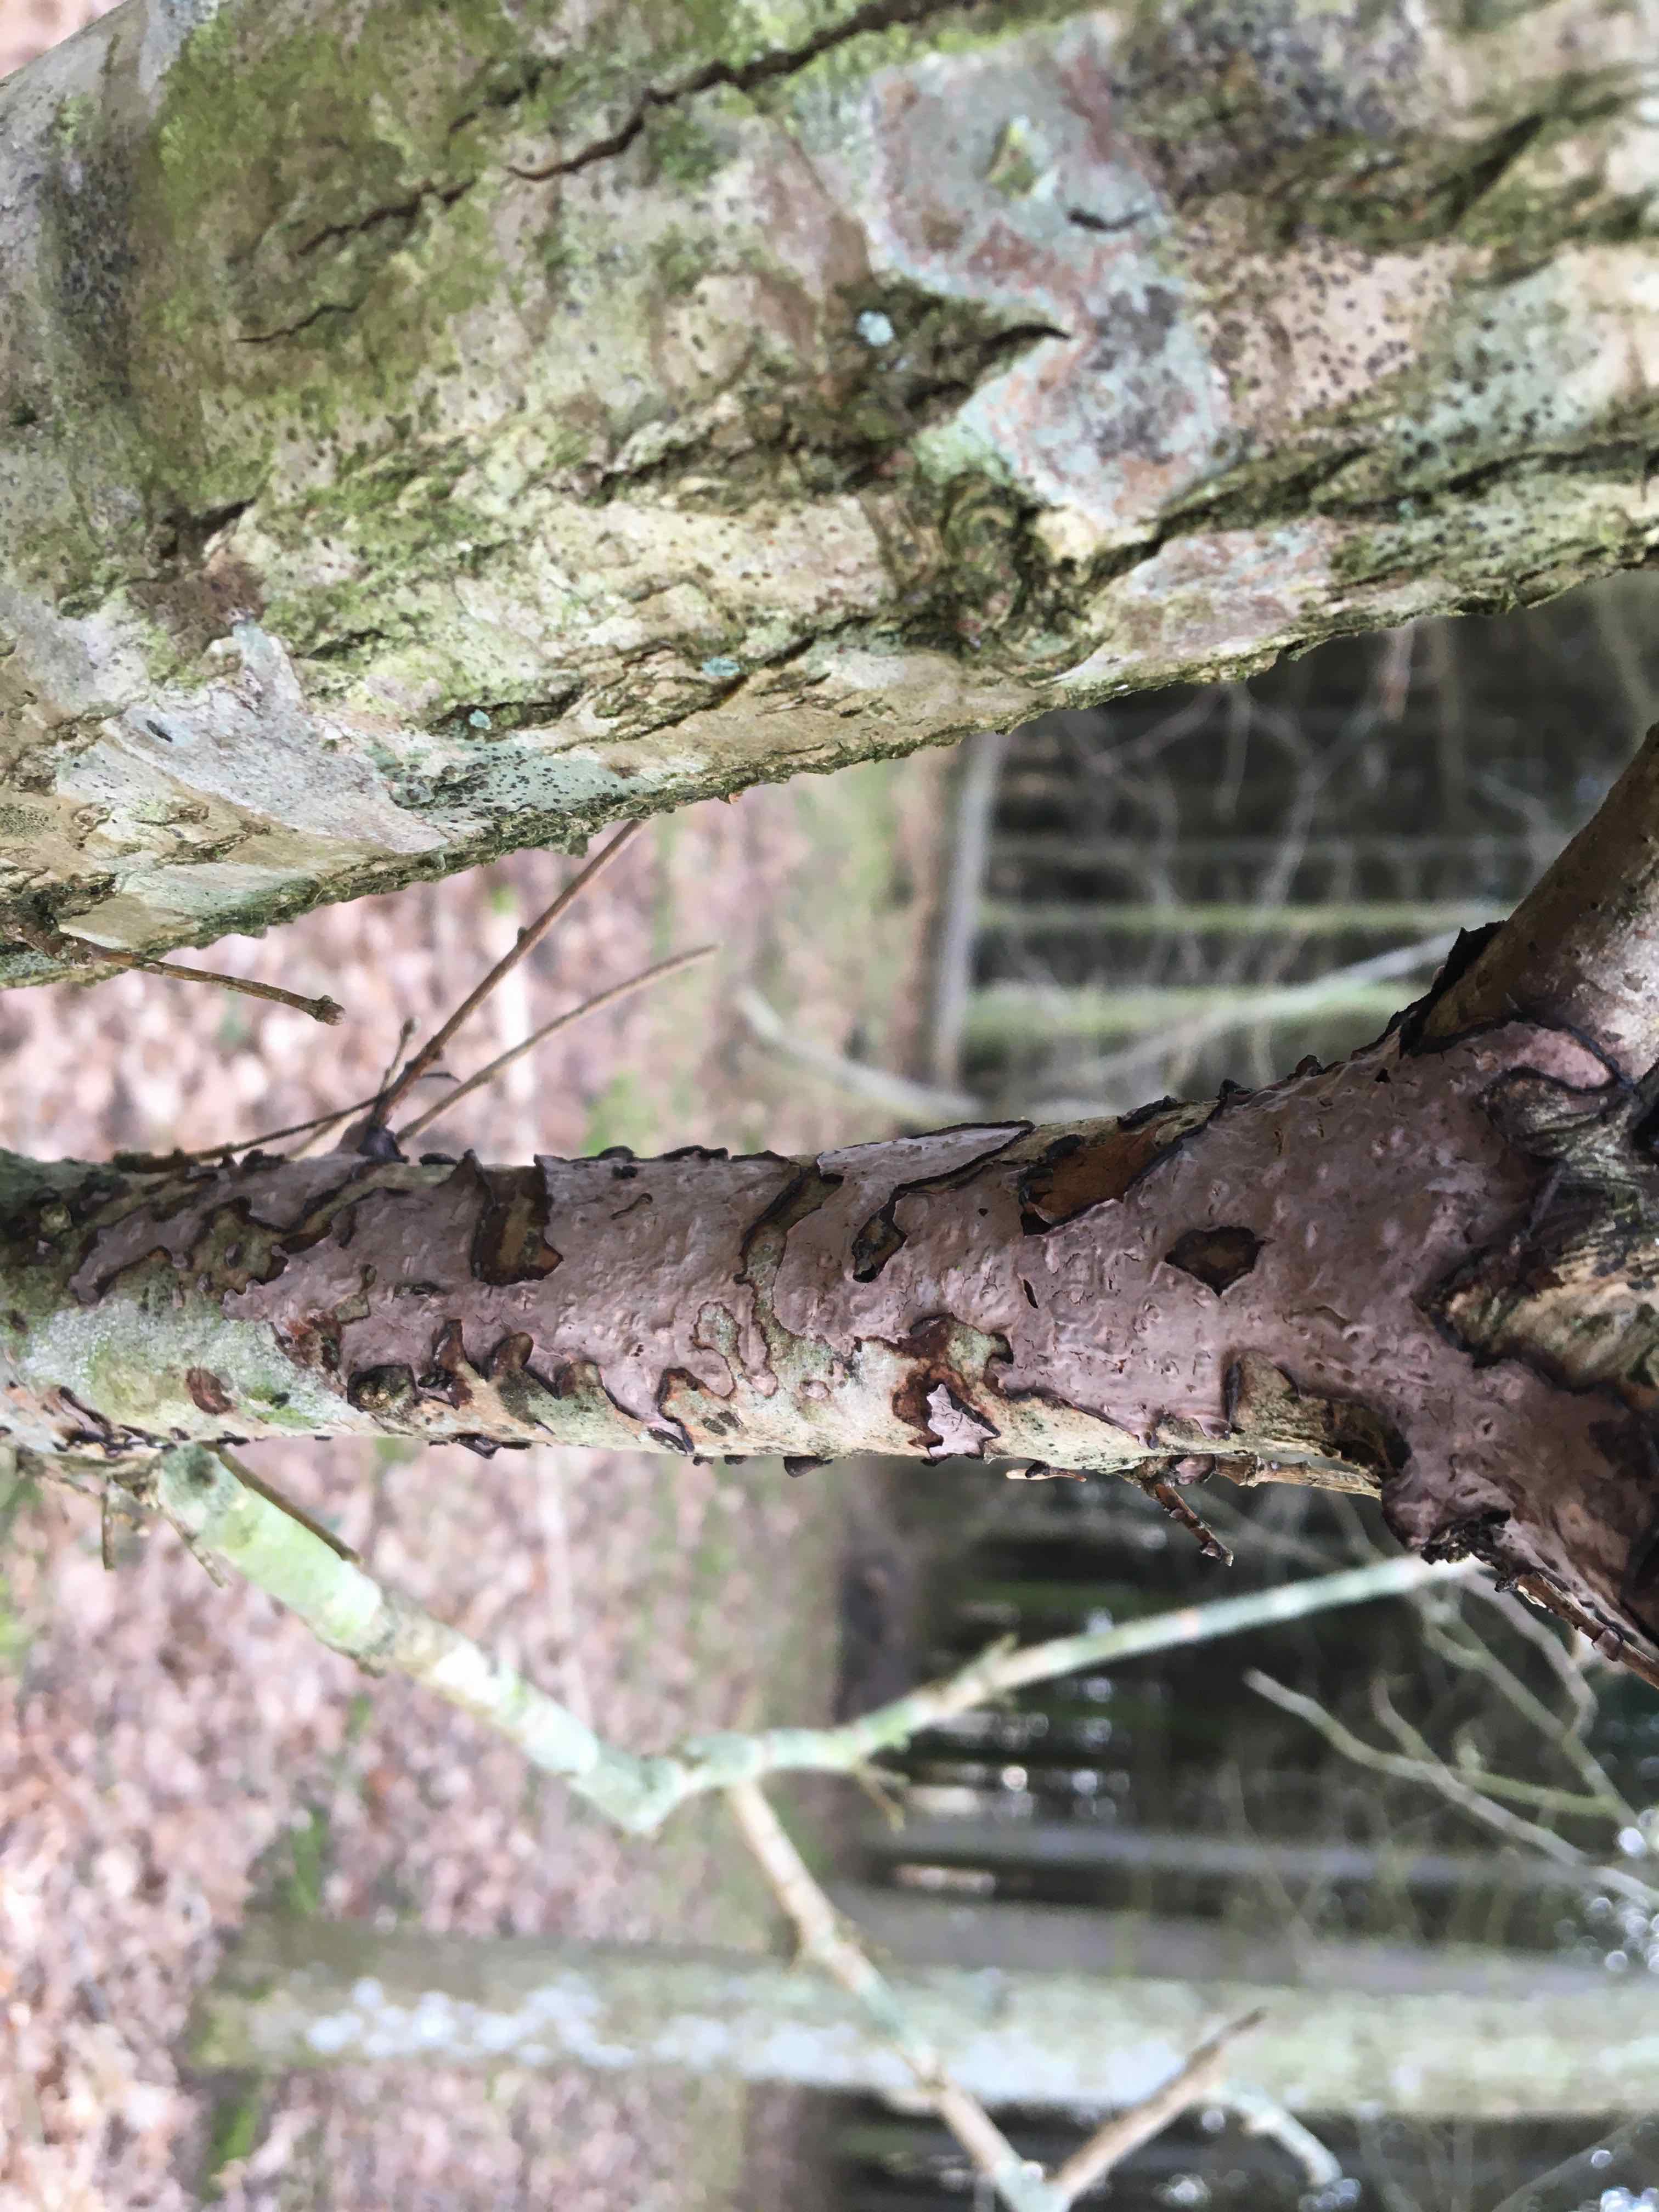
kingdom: Fungi
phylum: Basidiomycota
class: Agaricomycetes
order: Russulales
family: Peniophoraceae
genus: Peniophora
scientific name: Peniophora quercina
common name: ege-voksskind
